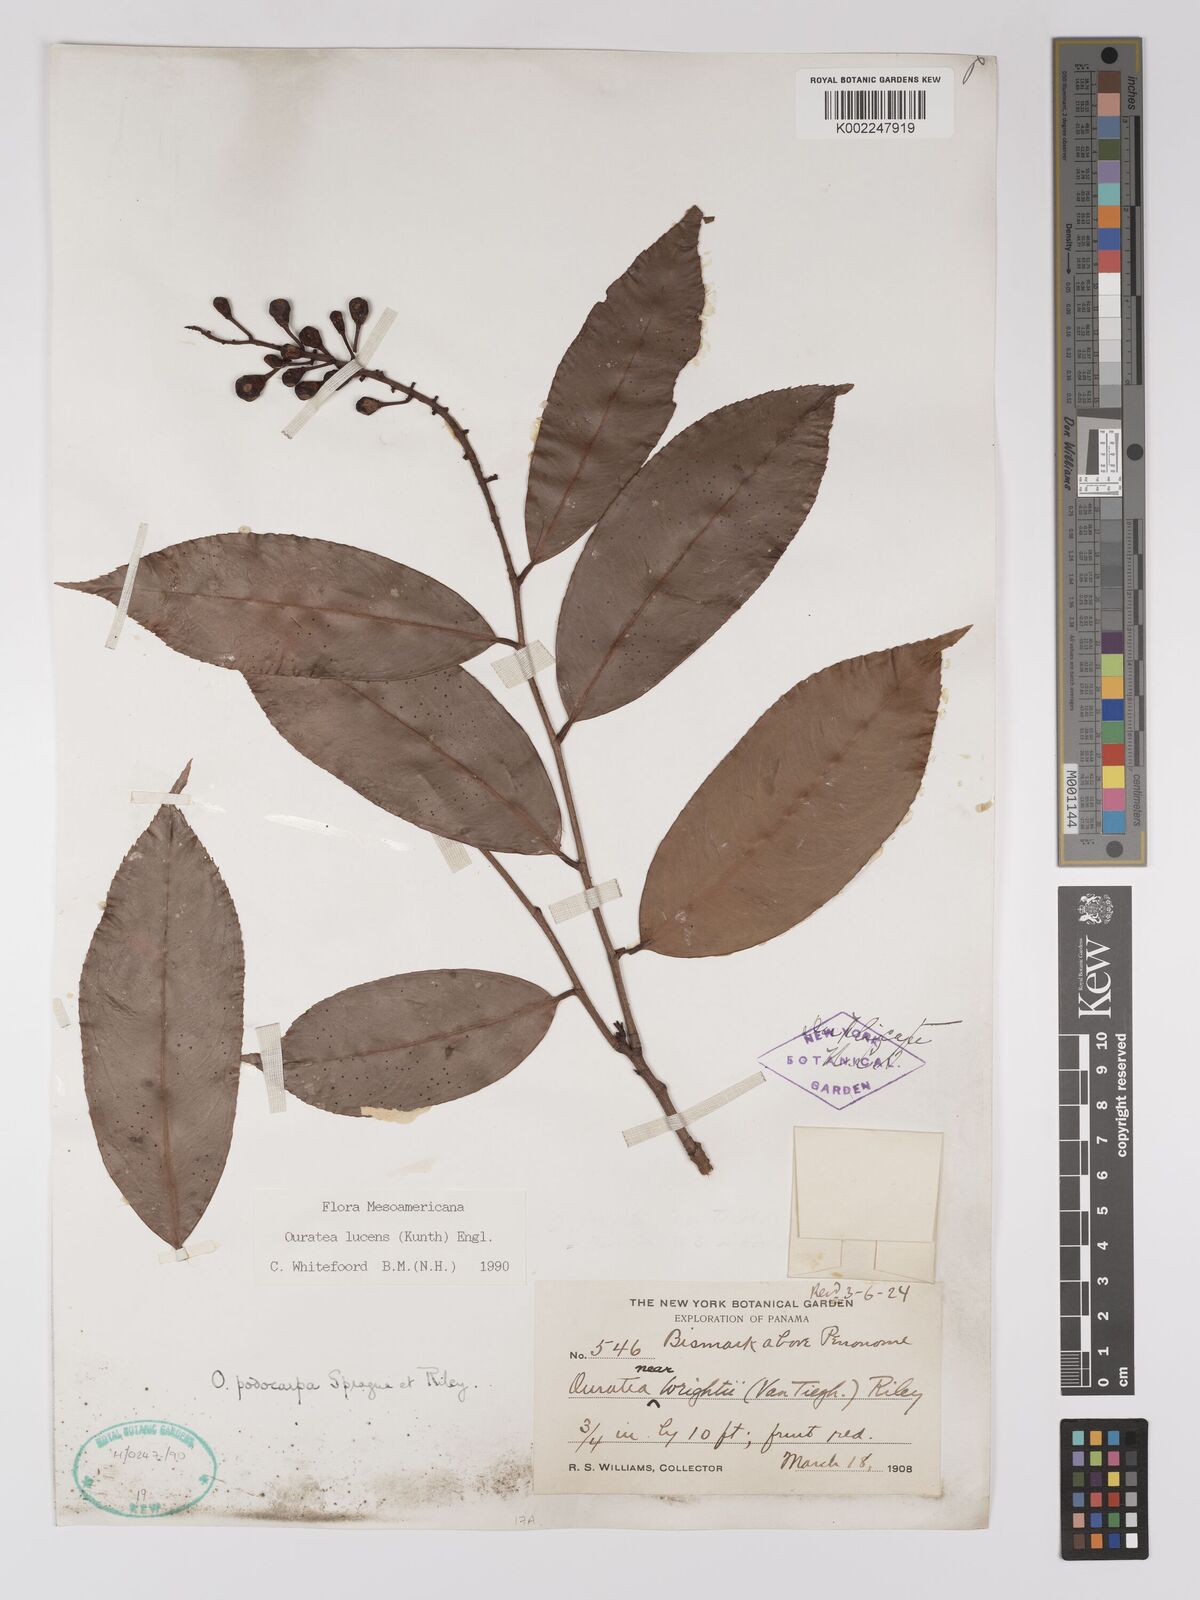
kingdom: Plantae
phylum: Tracheophyta
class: Magnoliopsida
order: Malpighiales
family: Ochnaceae
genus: Ouratea
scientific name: Ouratea lucens
